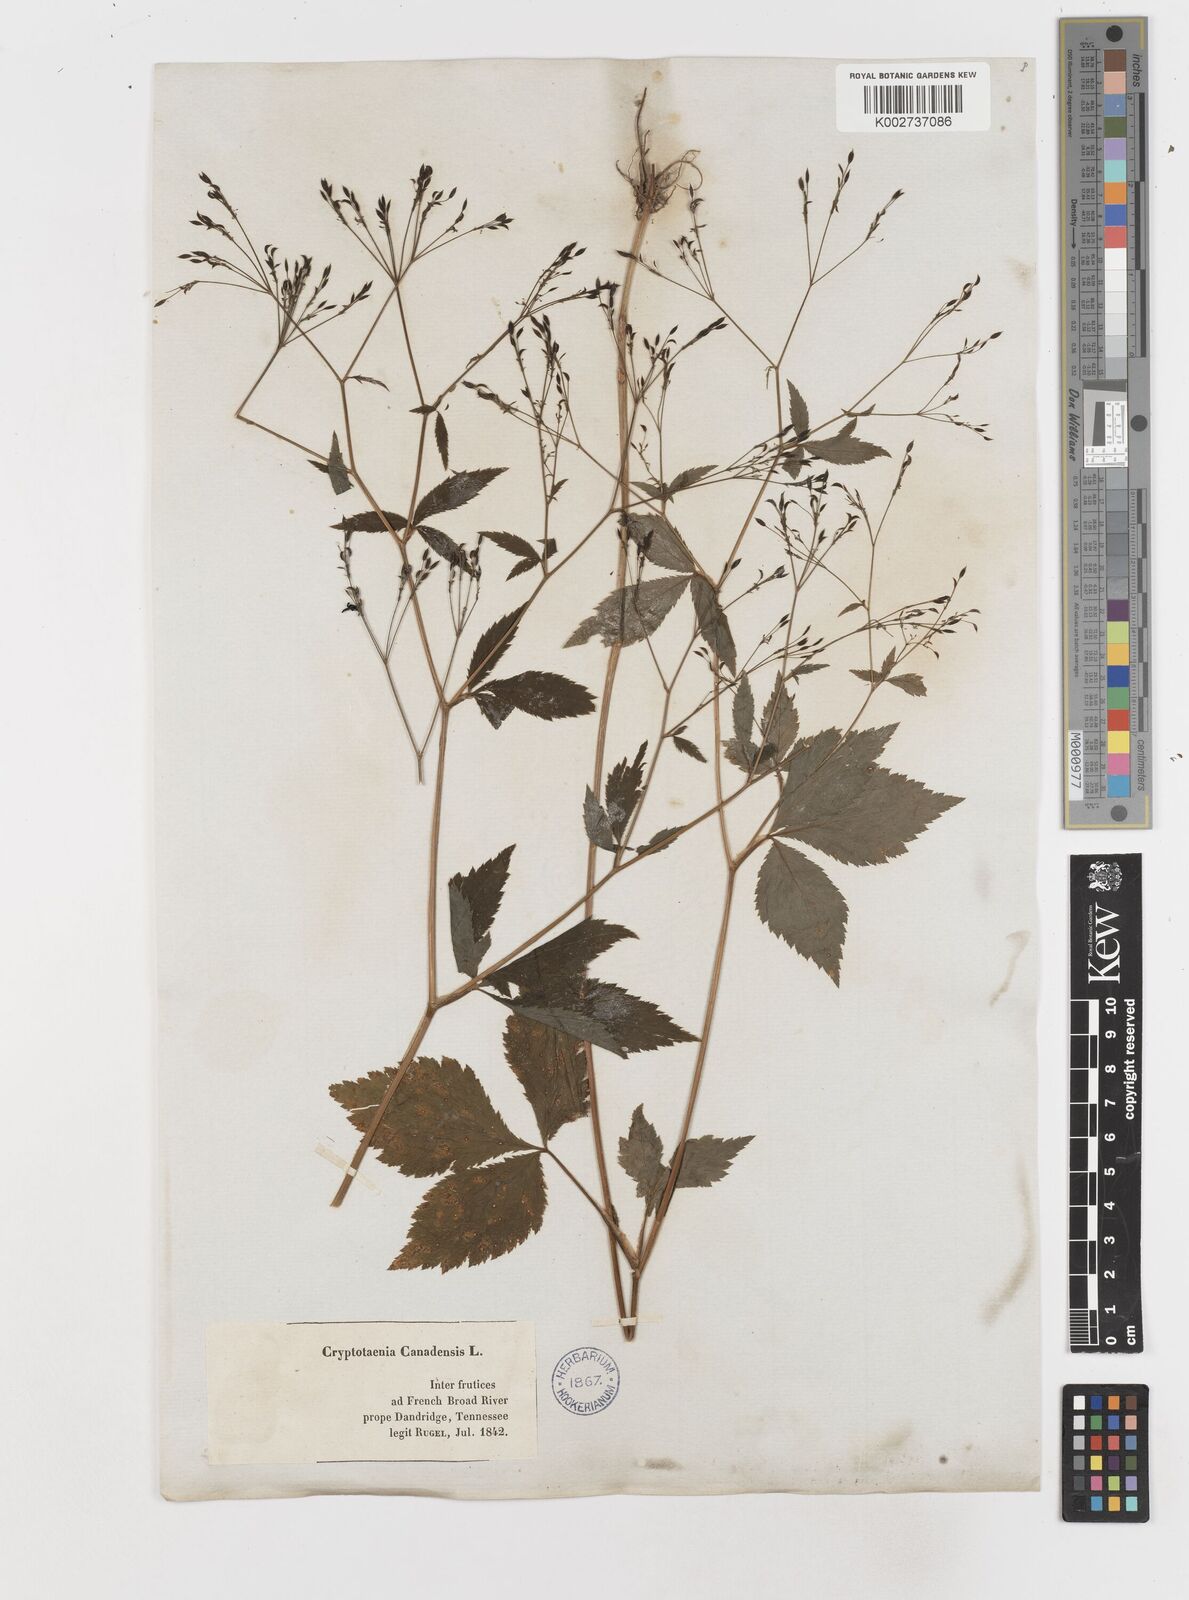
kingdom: Plantae
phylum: Tracheophyta
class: Magnoliopsida
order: Apiales
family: Apiaceae
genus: Cryptotaenia
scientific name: Cryptotaenia canadensis
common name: Honewort
